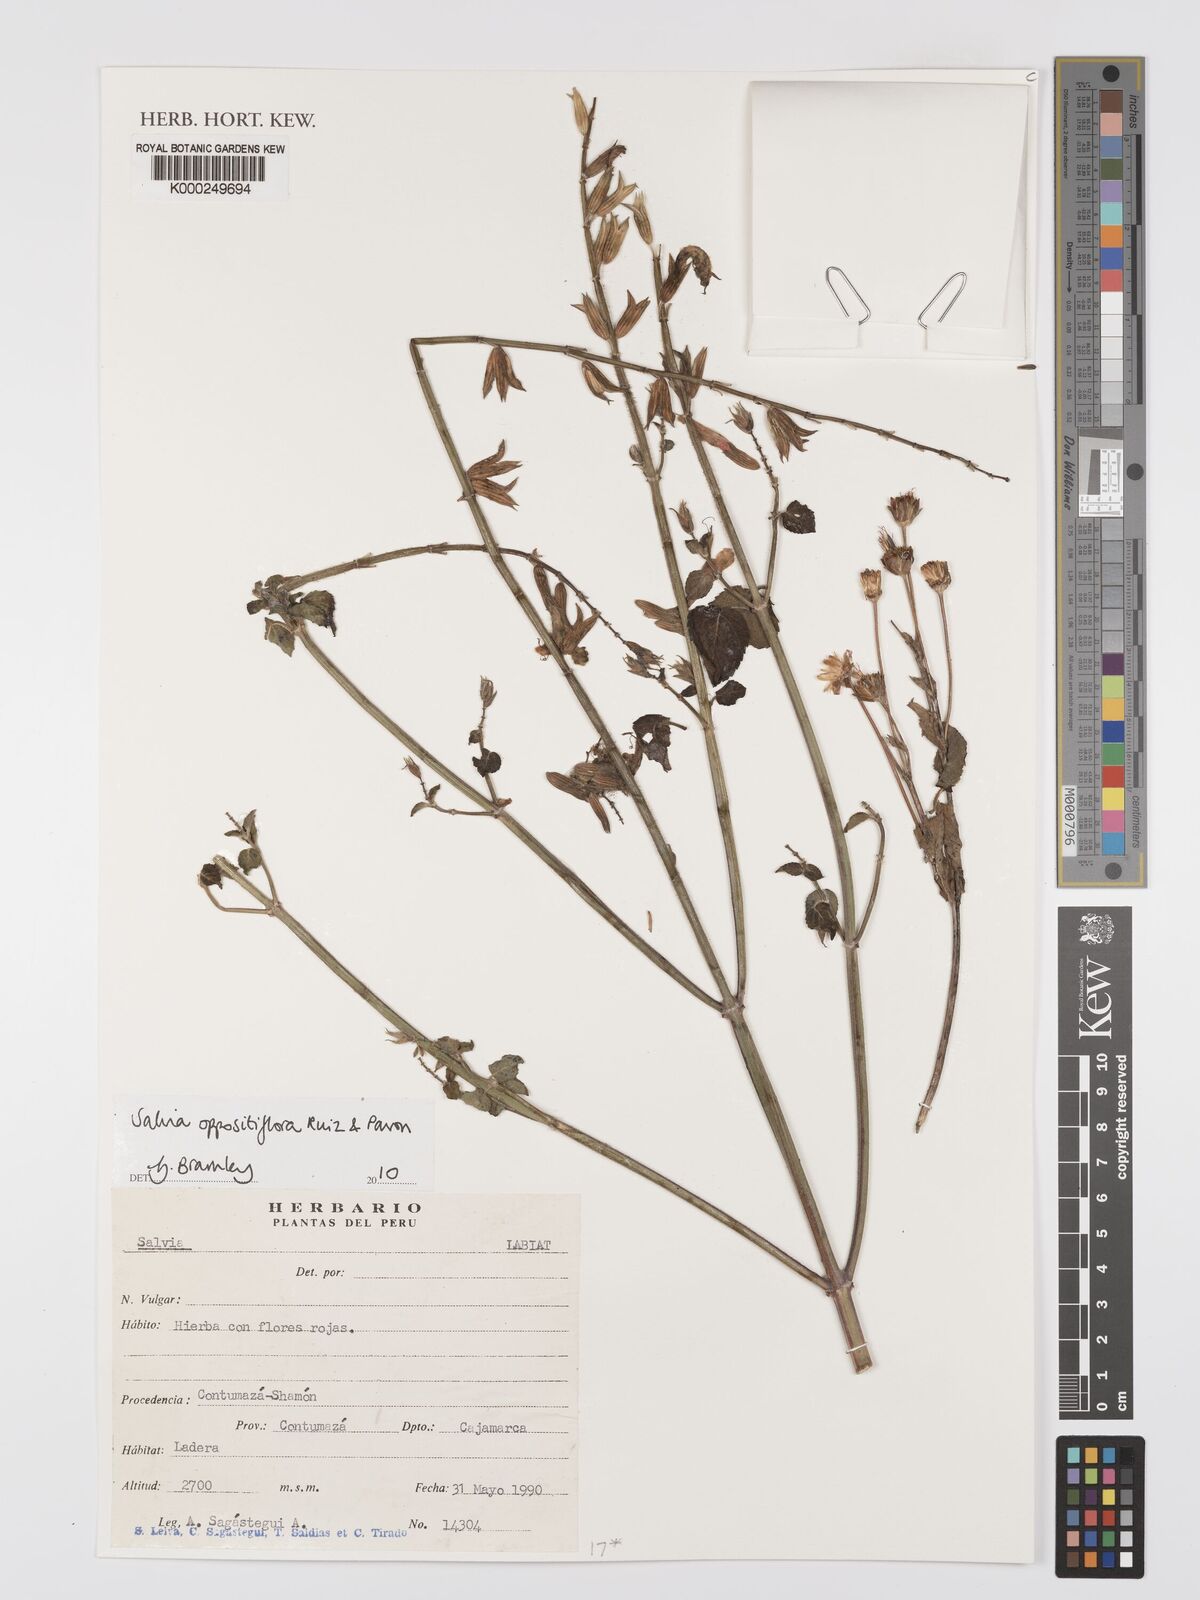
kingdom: Plantae
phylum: Tracheophyta
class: Magnoliopsida
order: Lamiales
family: Lamiaceae
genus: Salvia
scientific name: Salvia oppositiflora
